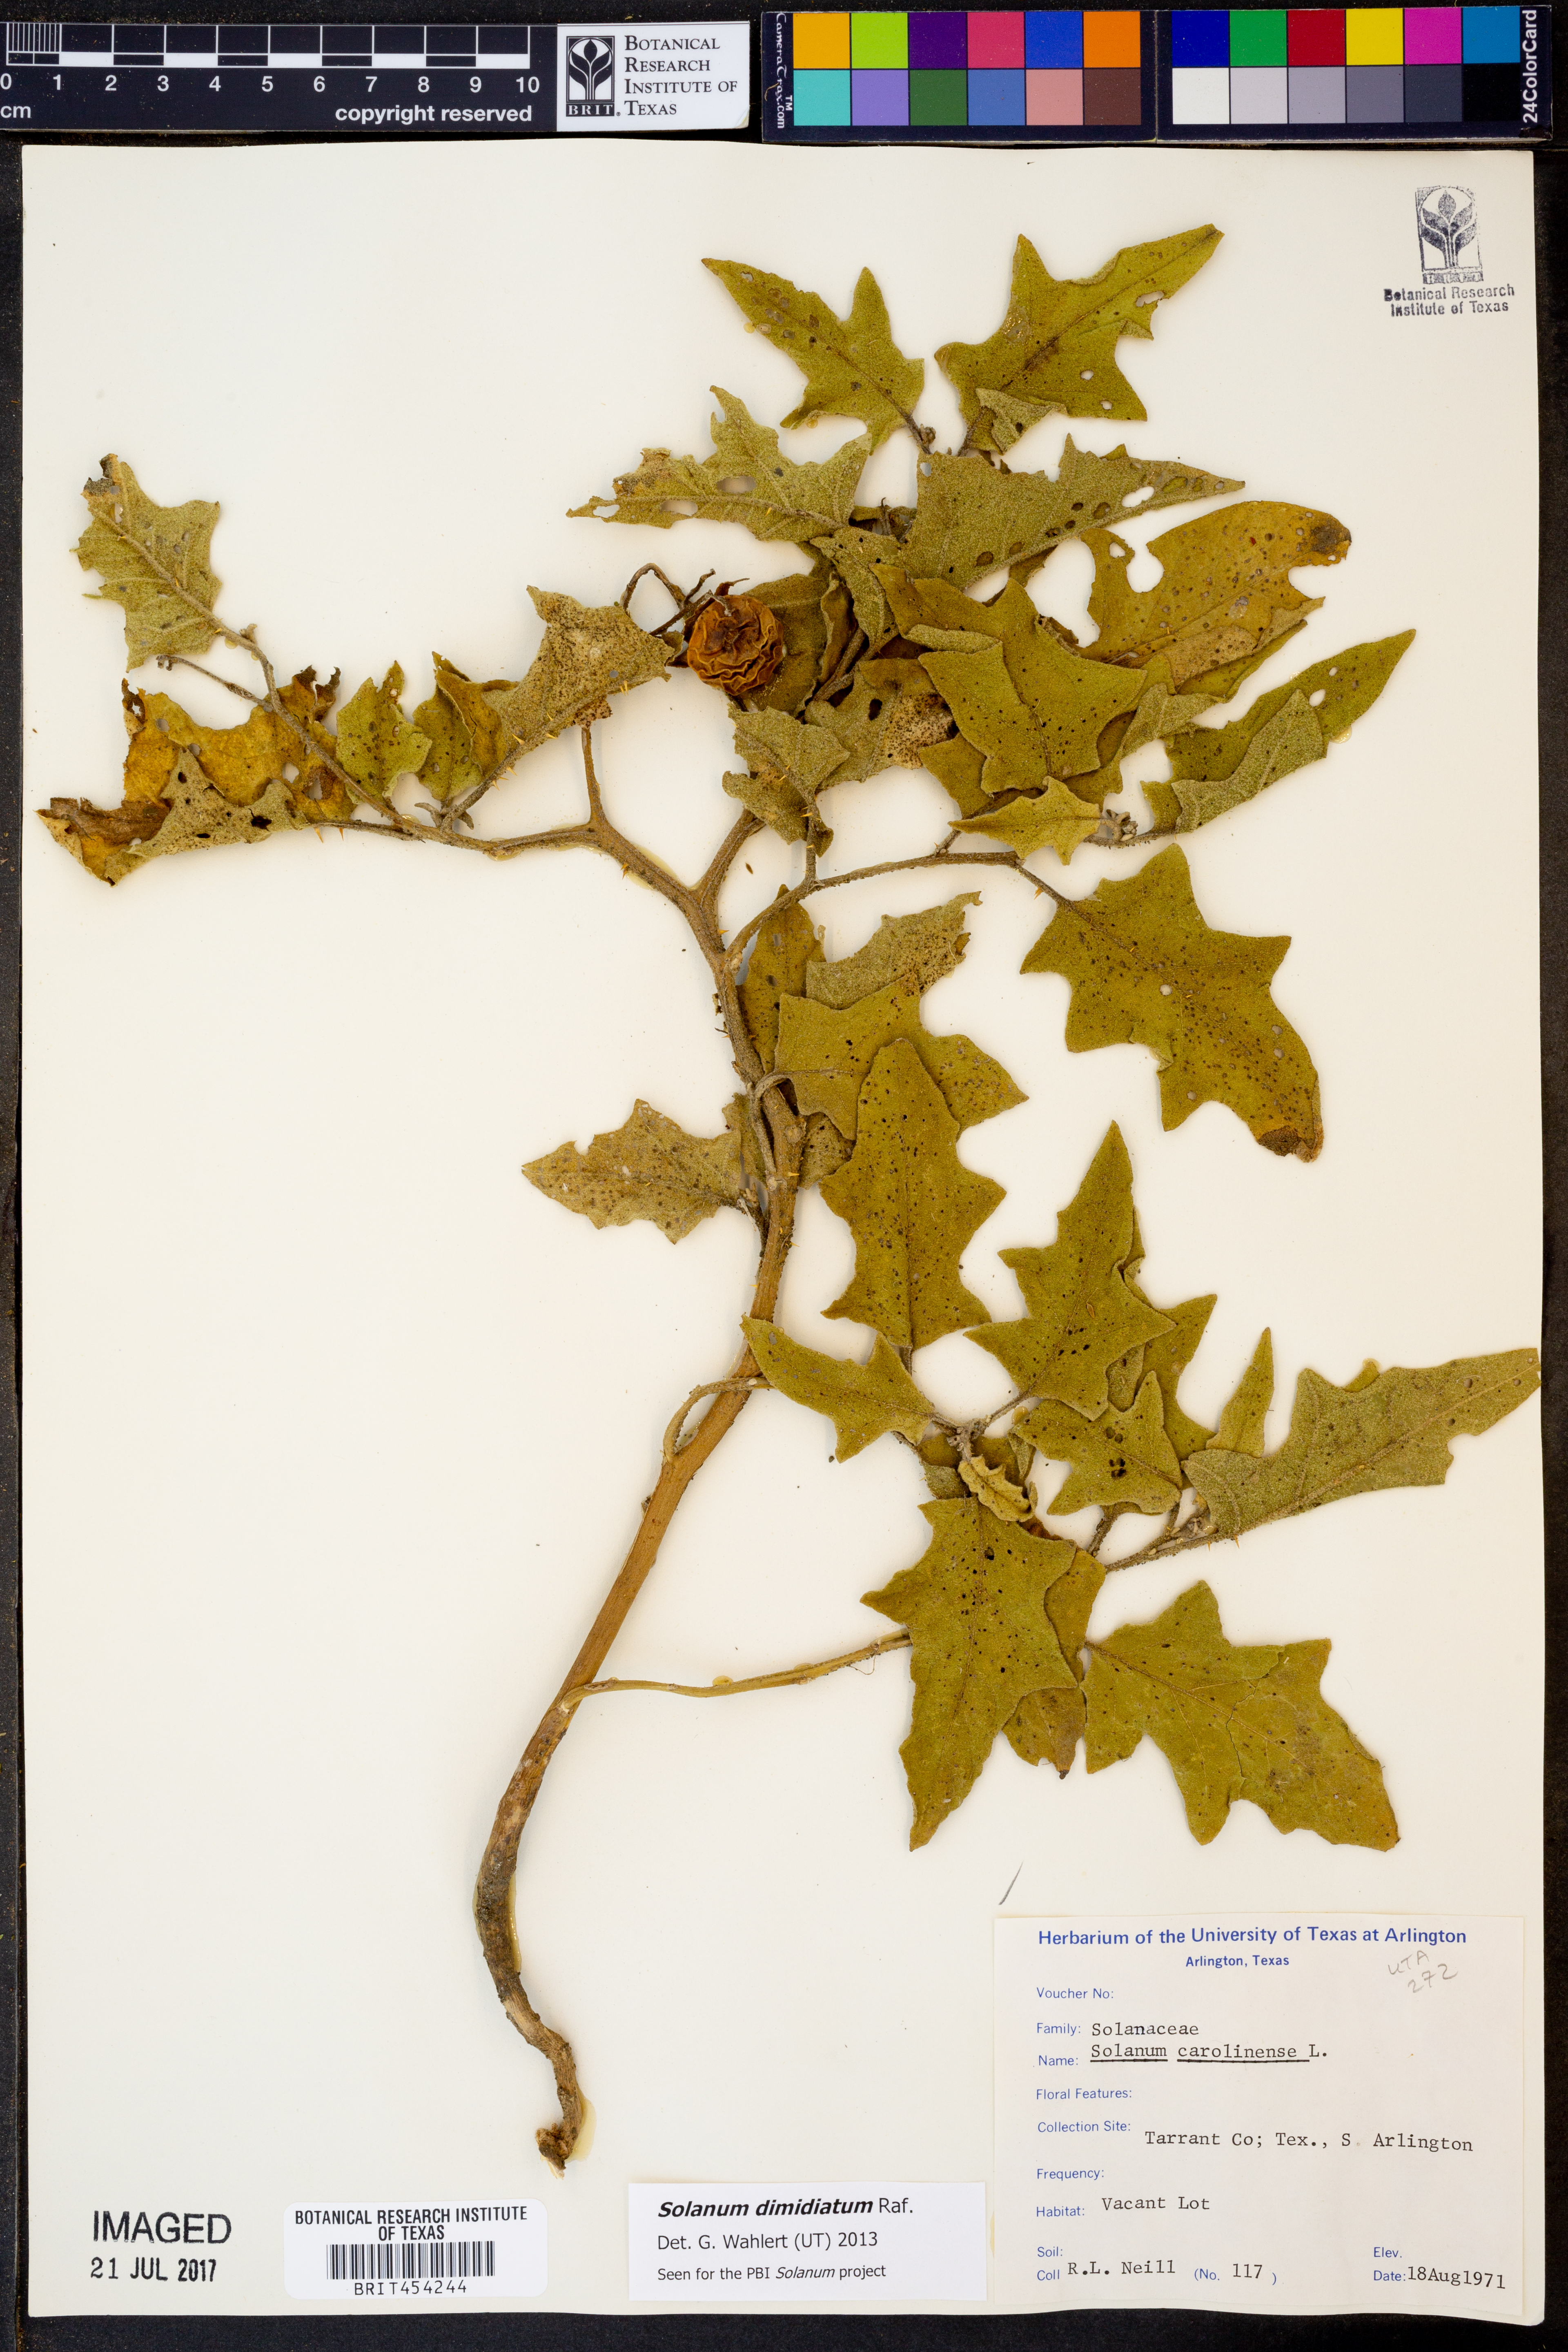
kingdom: Plantae
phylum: Tracheophyta
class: Magnoliopsida
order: Solanales
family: Solanaceae
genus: Solanum
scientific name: Solanum dimidiatum
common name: Carolina horse-nettle
